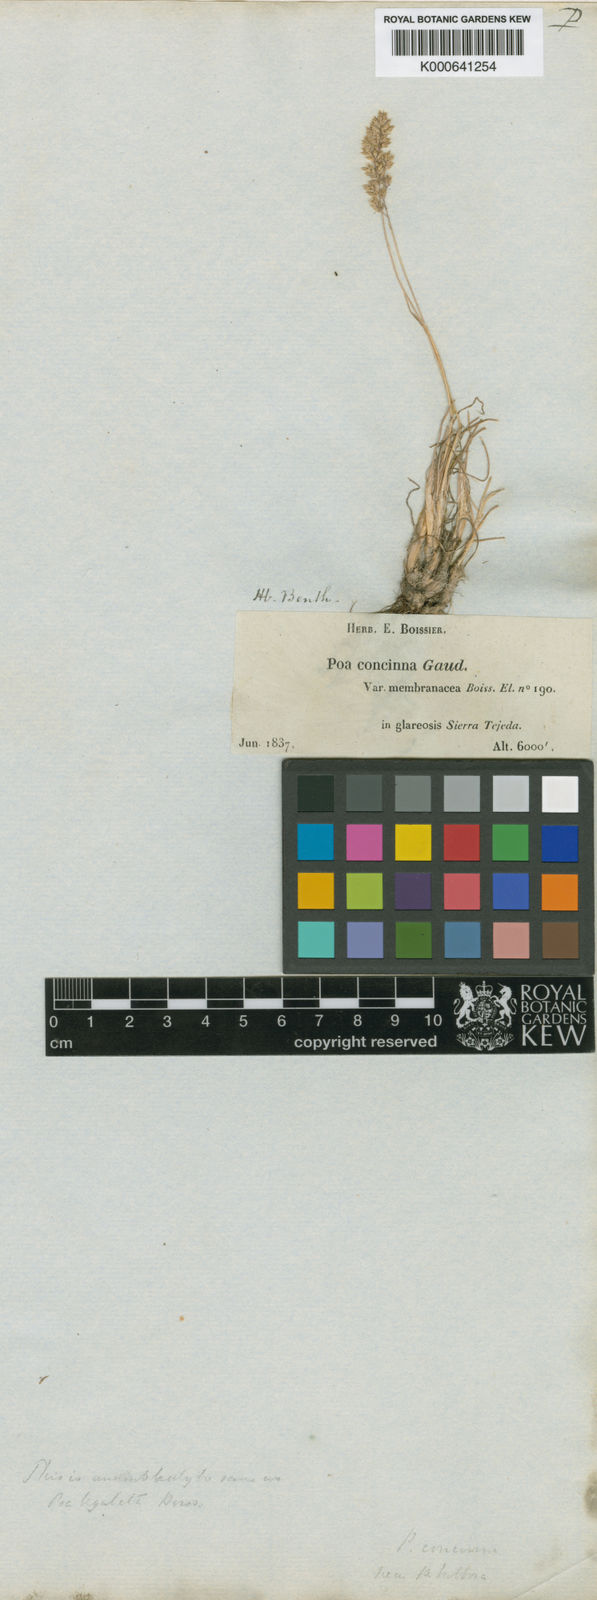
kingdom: Plantae
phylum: Tracheophyta
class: Liliopsida
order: Poales
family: Poaceae
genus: Poa
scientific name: Poa perconcinna
